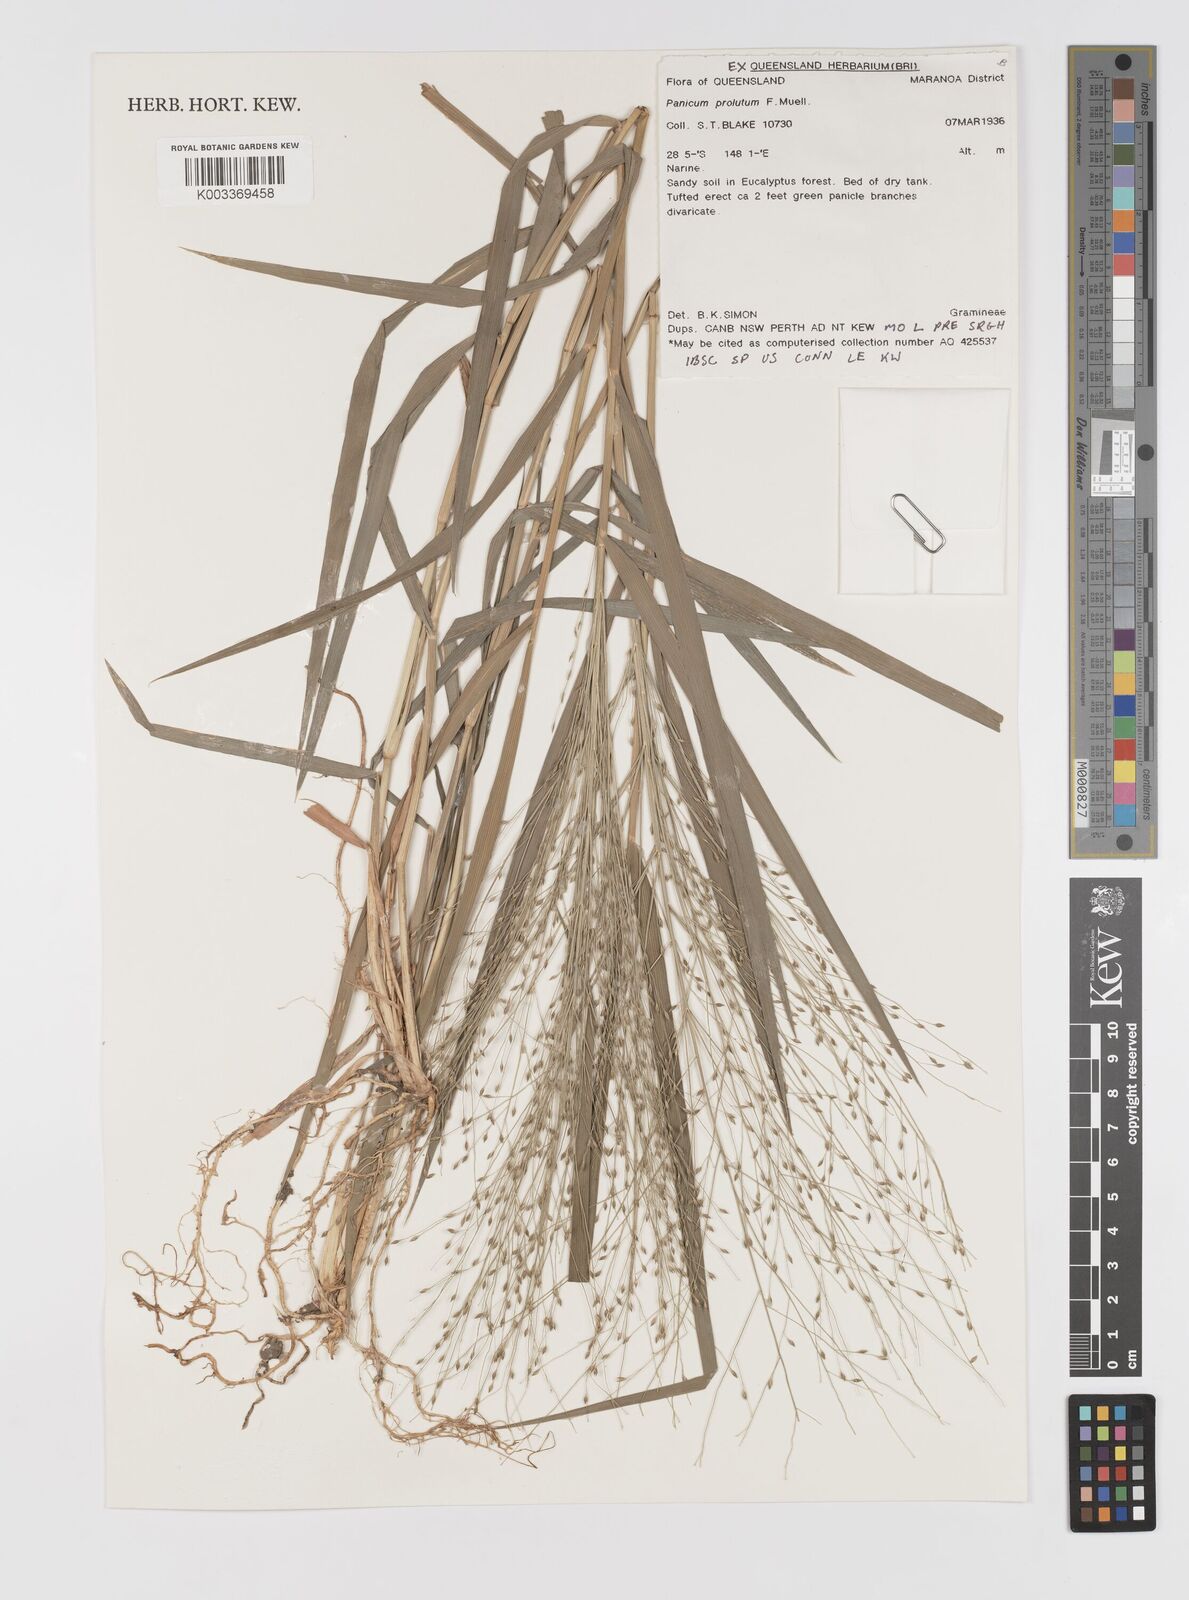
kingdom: Plantae
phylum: Tracheophyta
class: Liliopsida
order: Poales
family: Poaceae
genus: Walwhalleya
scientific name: Walwhalleya proluta
